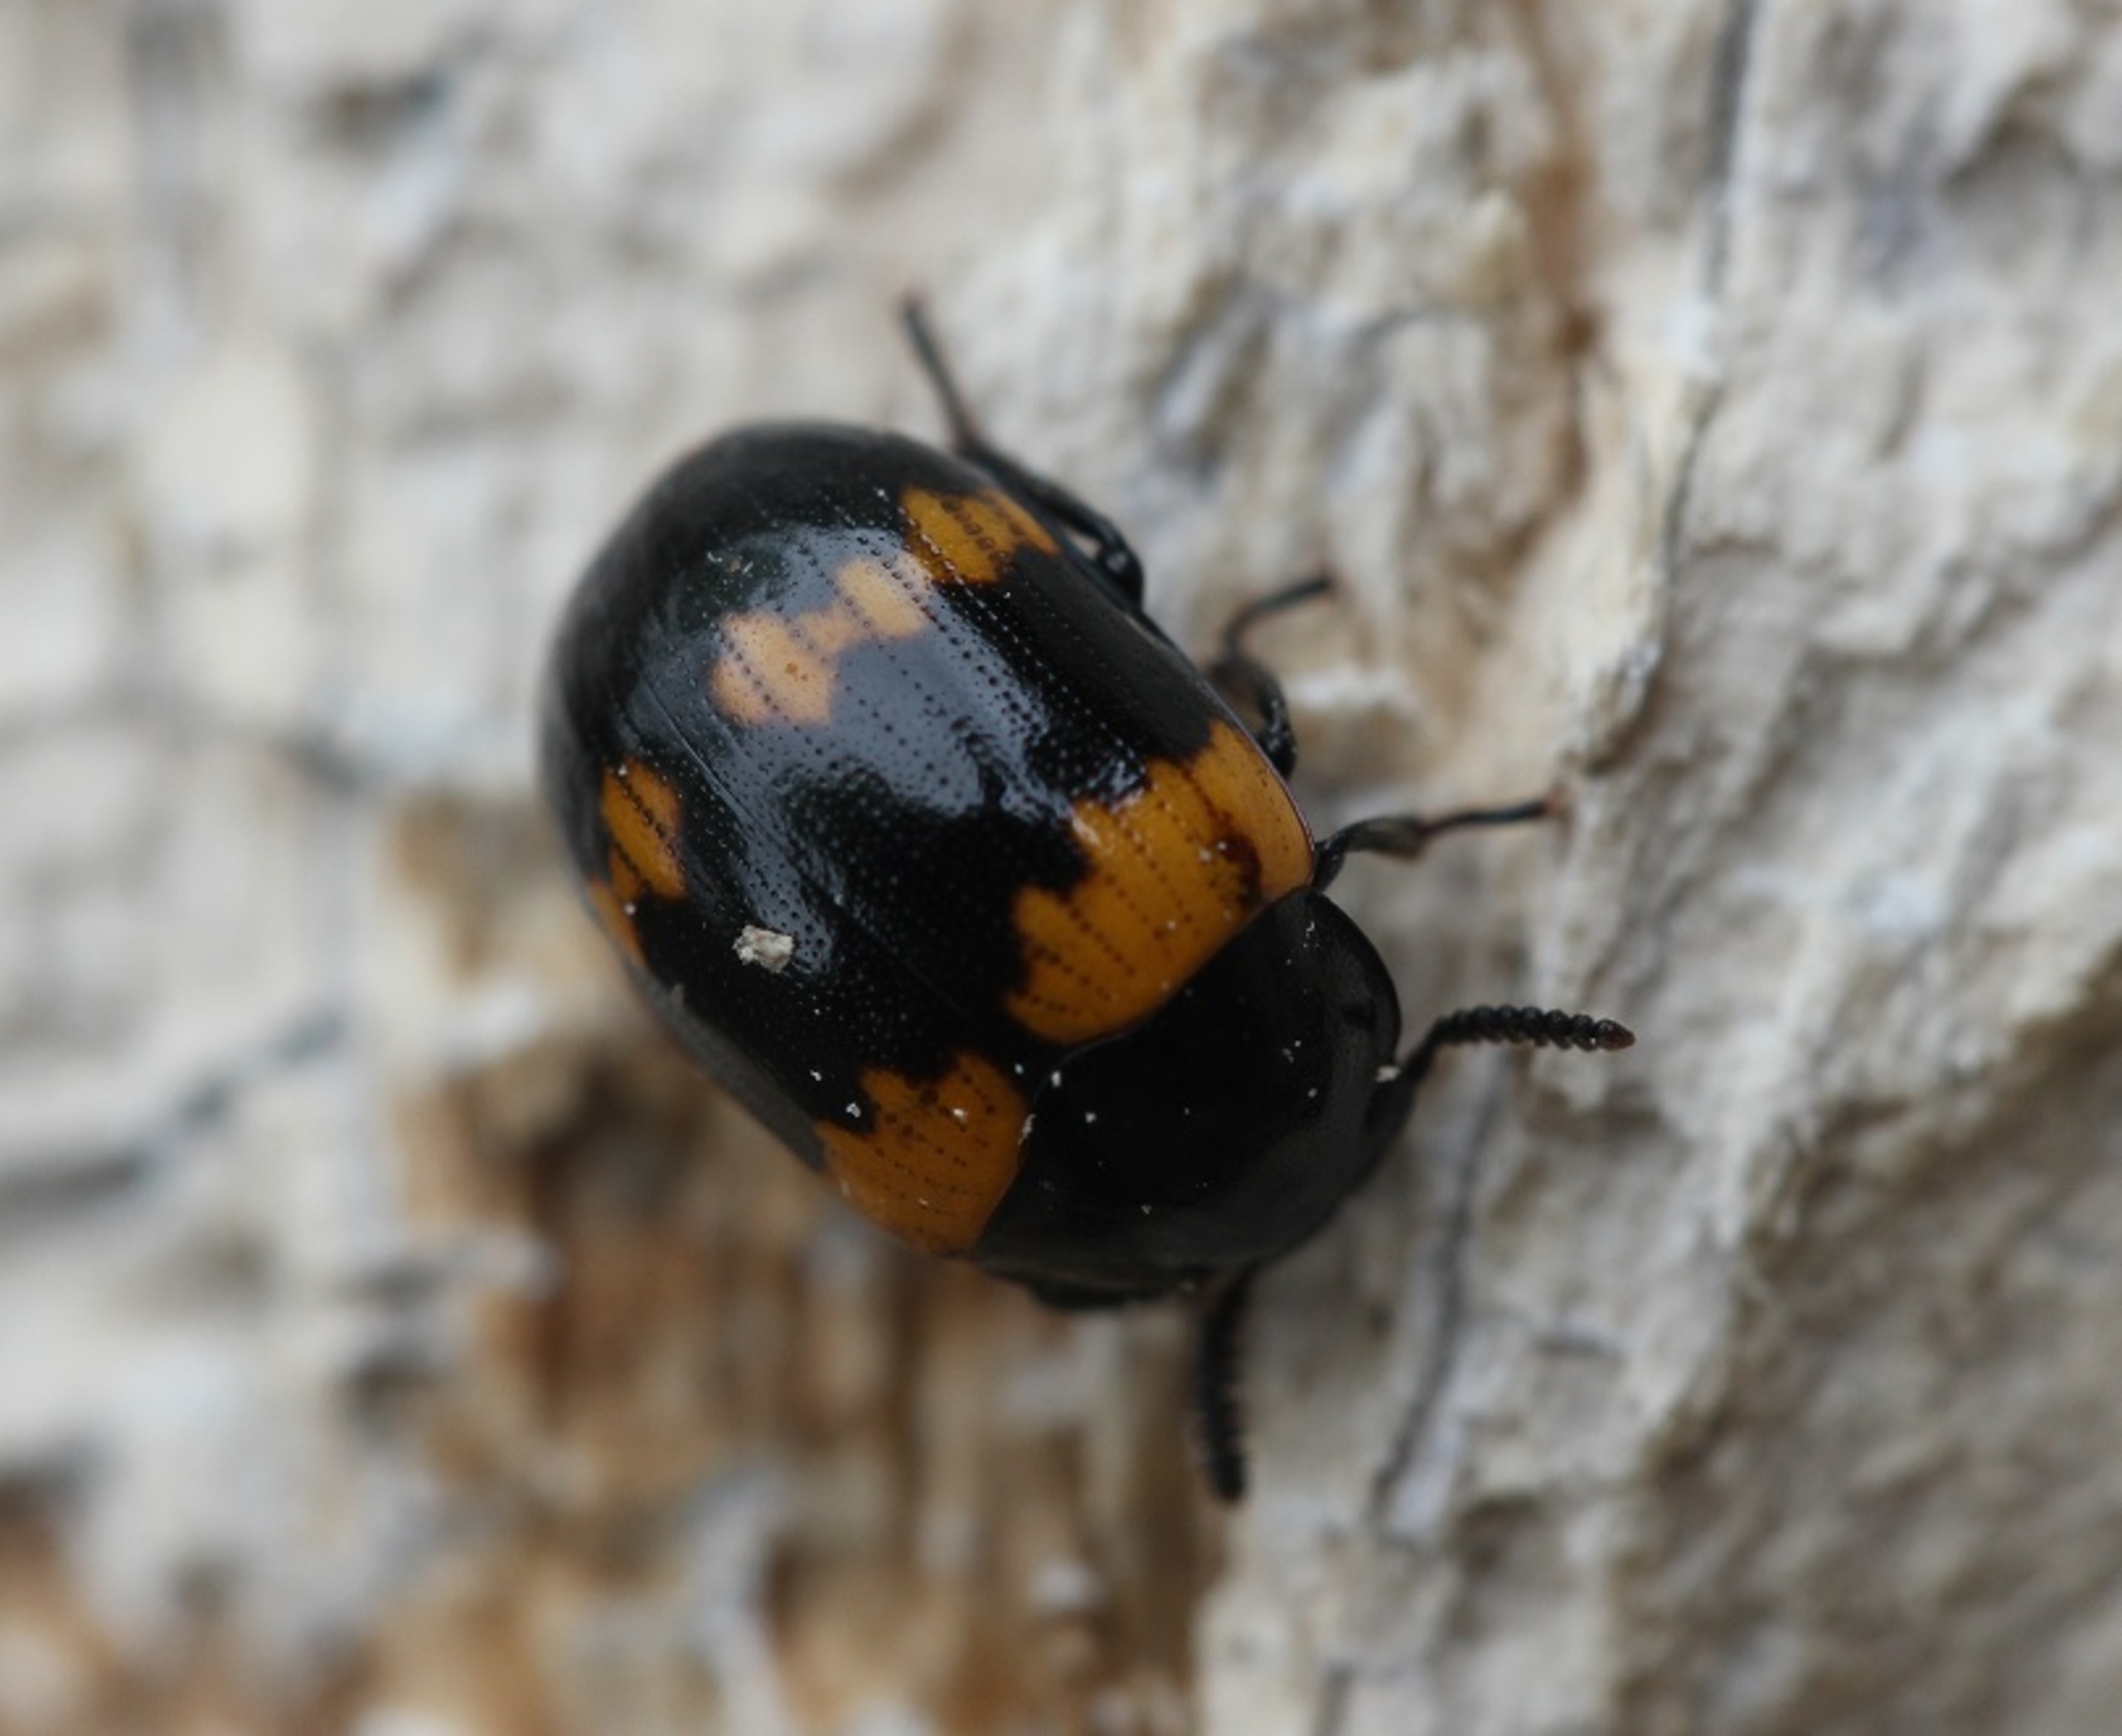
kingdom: Animalia
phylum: Arthropoda
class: Insecta
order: Coleoptera
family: Tenebrionidae
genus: Diaperis
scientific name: Diaperis boleti
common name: Tigerskyggebille
